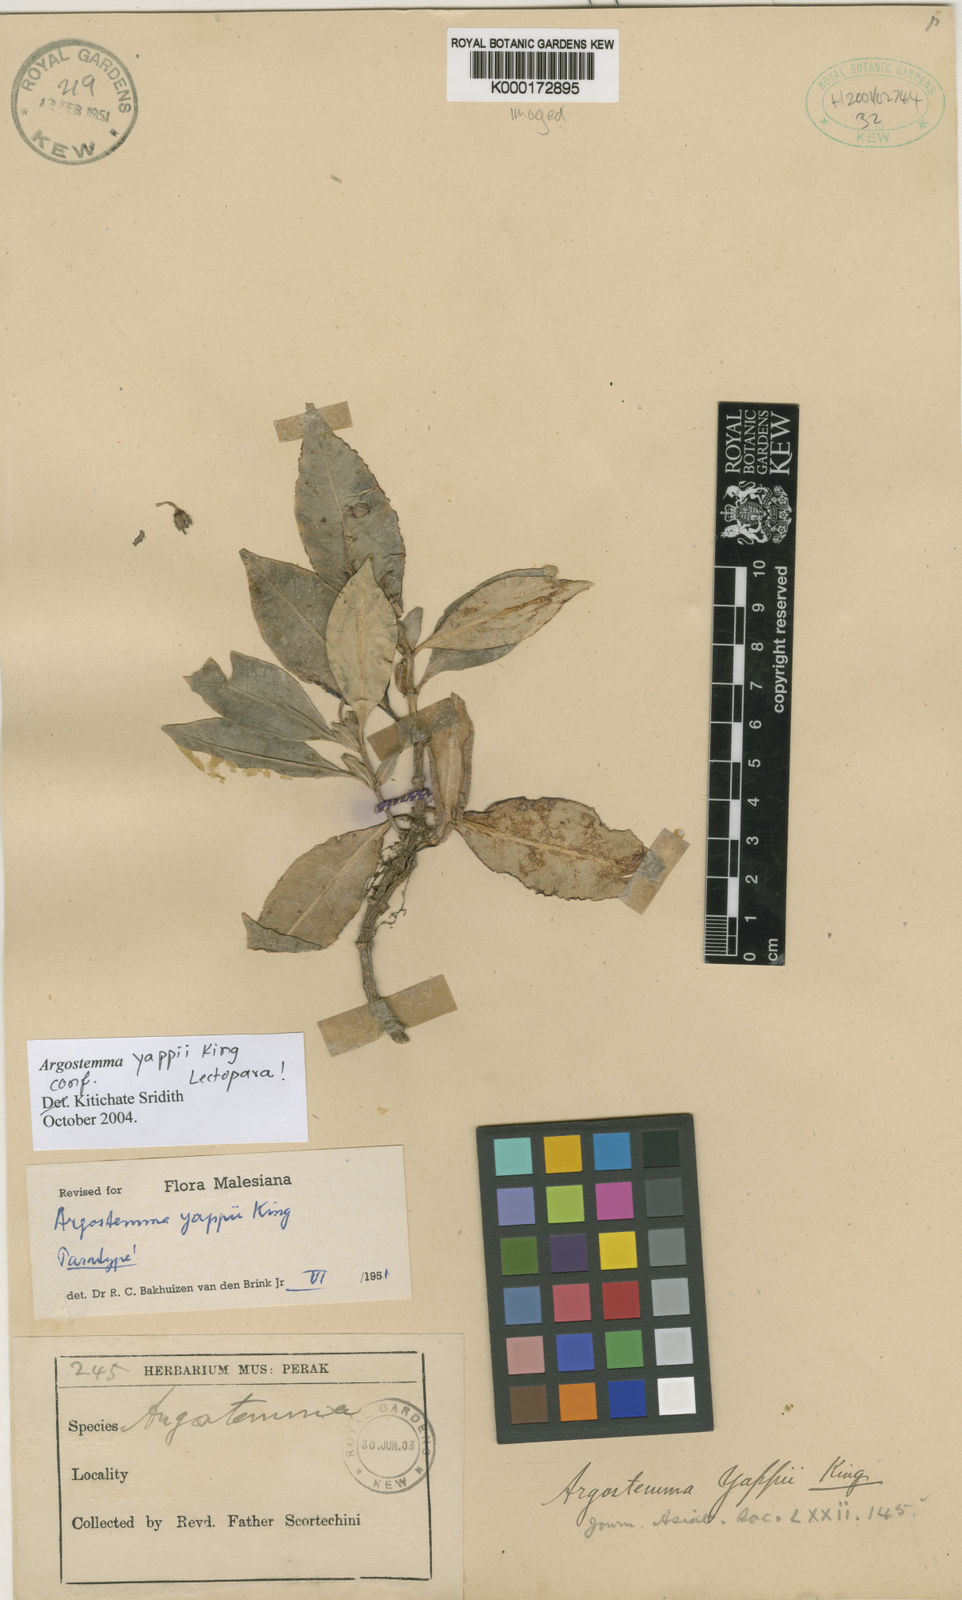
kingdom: Plantae
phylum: Tracheophyta
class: Magnoliopsida
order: Gentianales
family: Rubiaceae
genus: Argostemma
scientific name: Argostemma yappii
